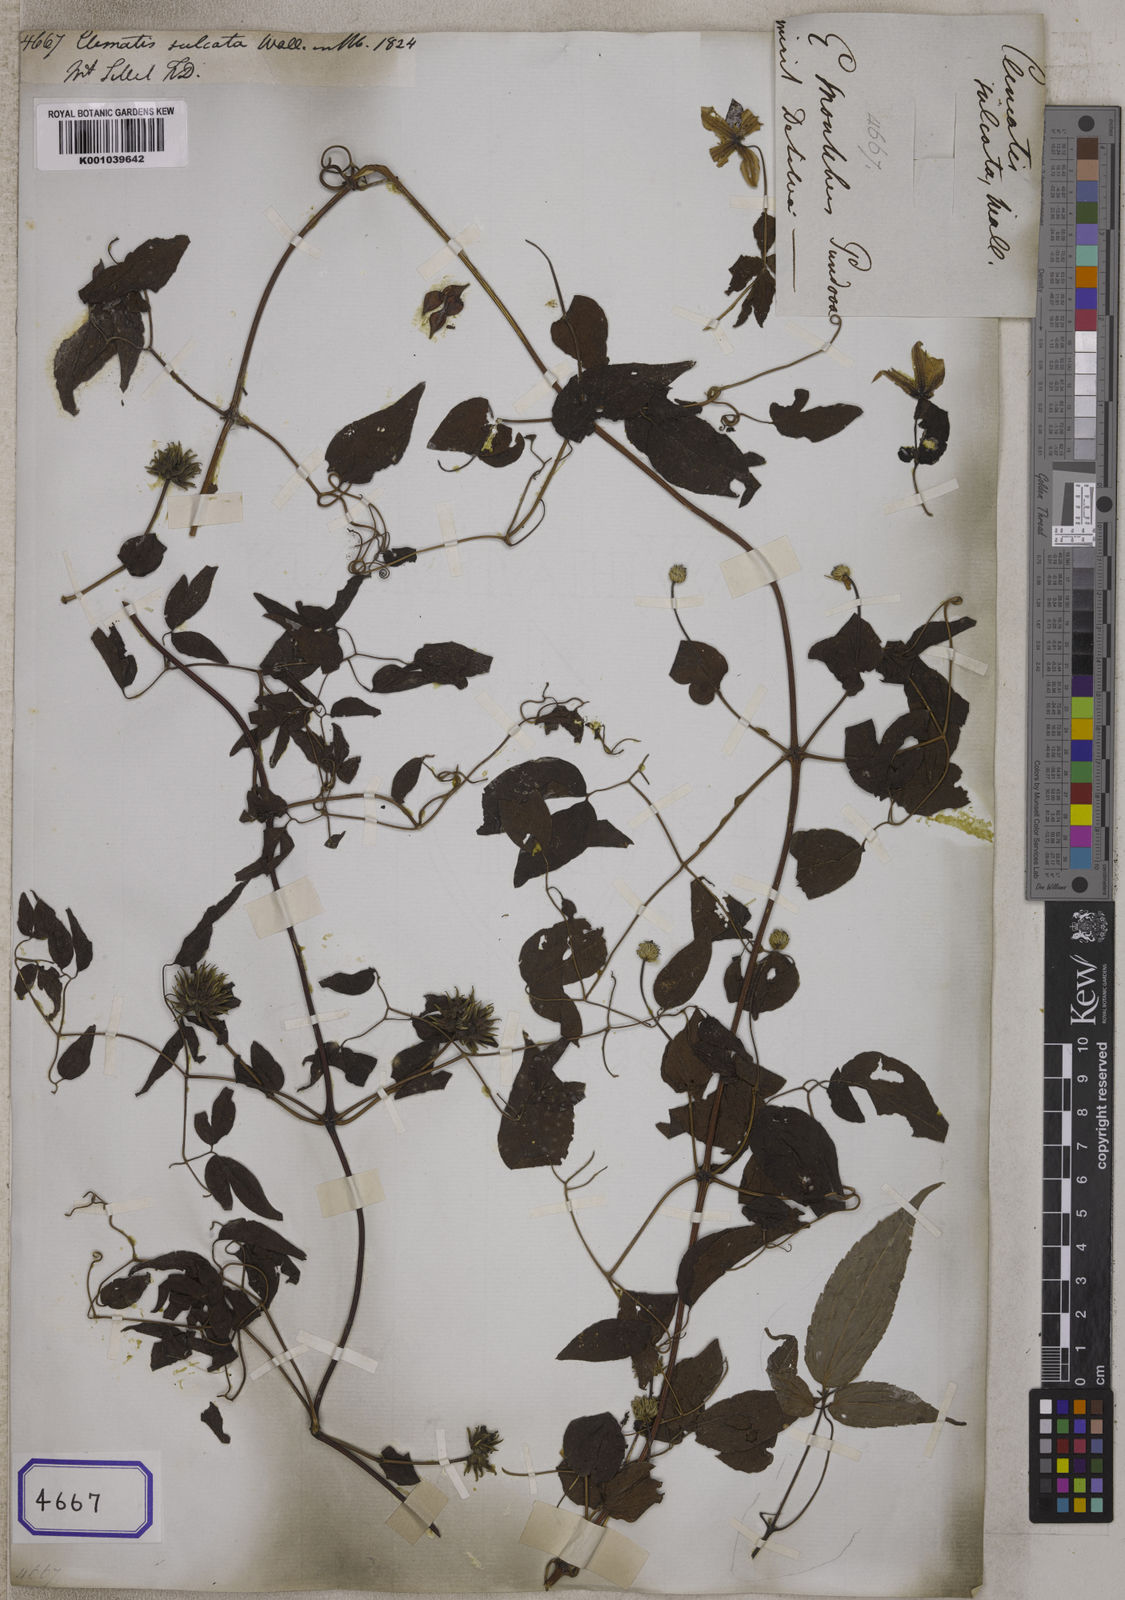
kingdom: Plantae
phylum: Tracheophyta
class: Magnoliopsida
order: Ranunculales
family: Ranunculaceae
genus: Clematis
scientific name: Clematis cadmia
